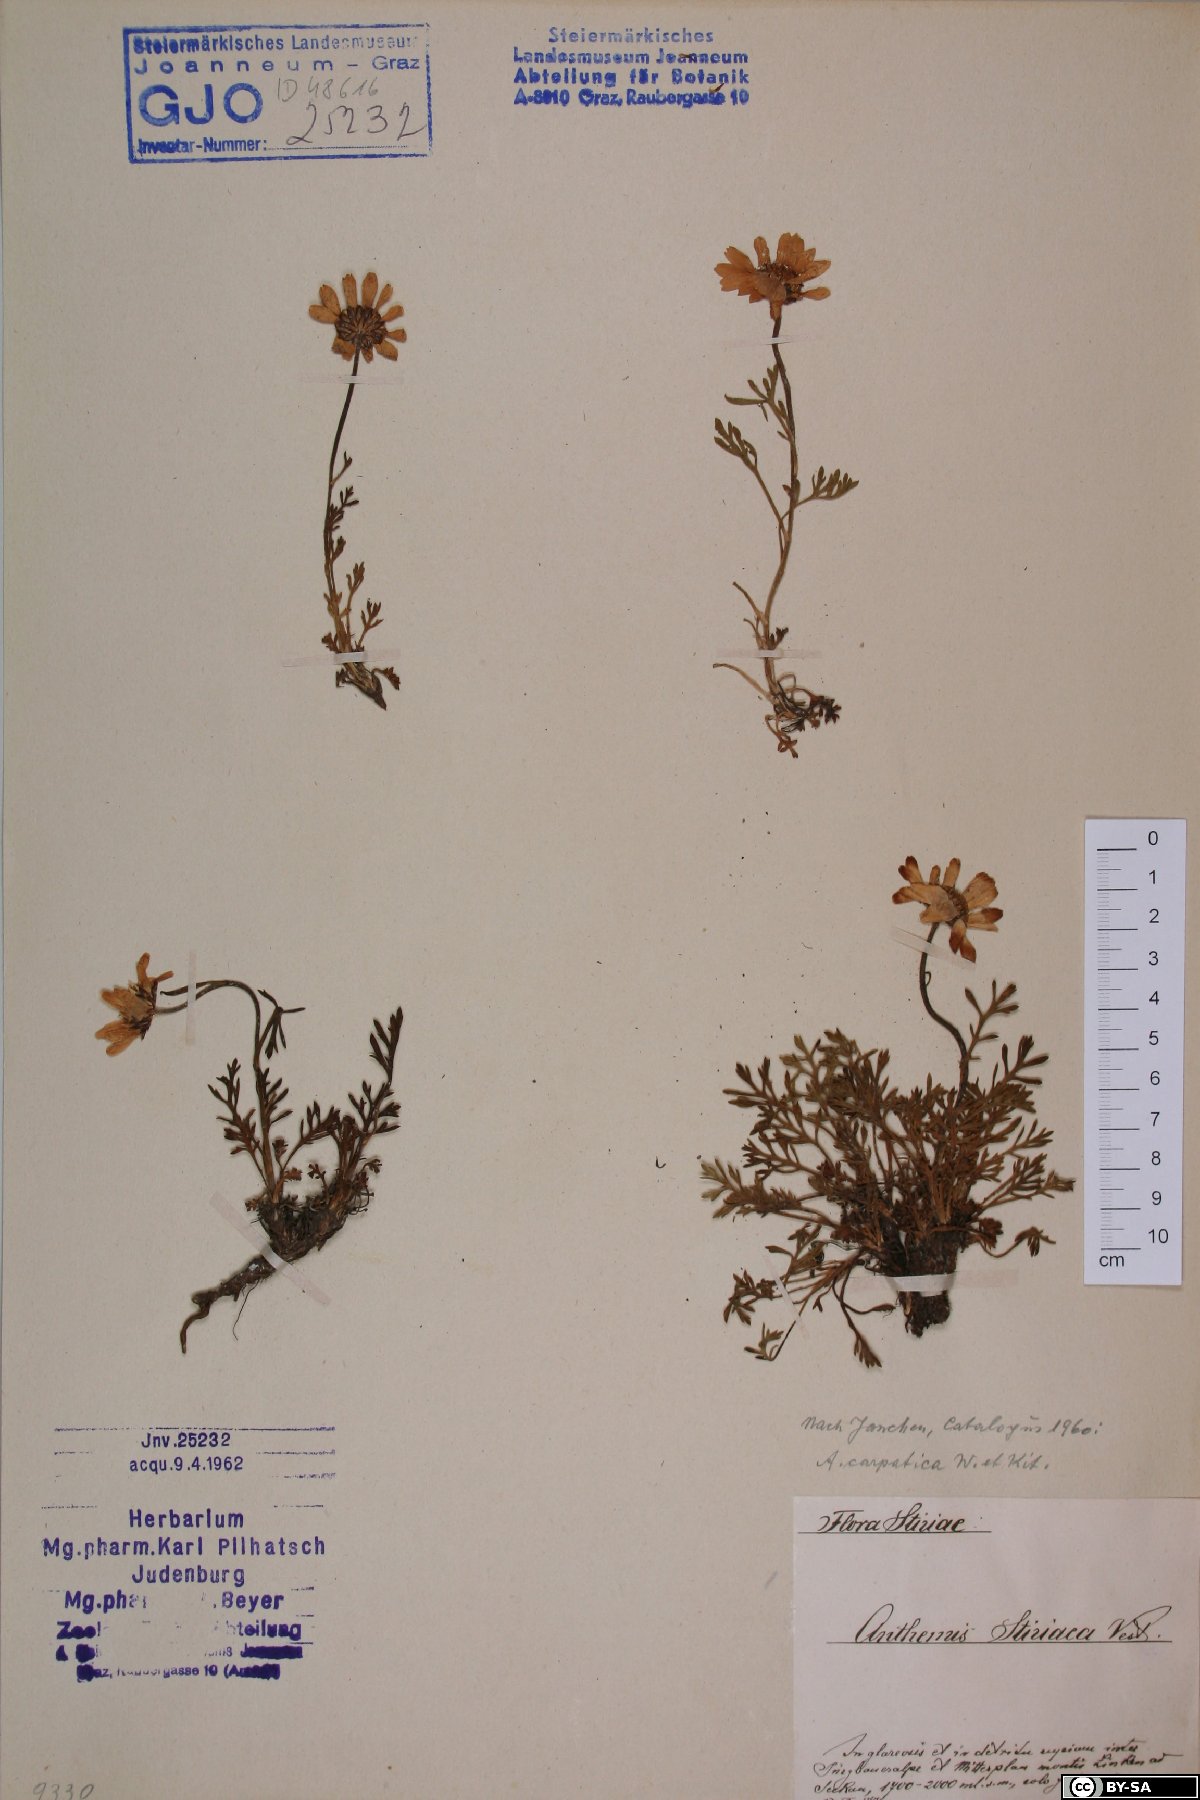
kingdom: Plantae
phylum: Tracheophyta
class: Magnoliopsida
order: Asterales
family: Asteraceae
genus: Anthemis
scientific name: Anthemis cretica
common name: Mountain dog-daisy
